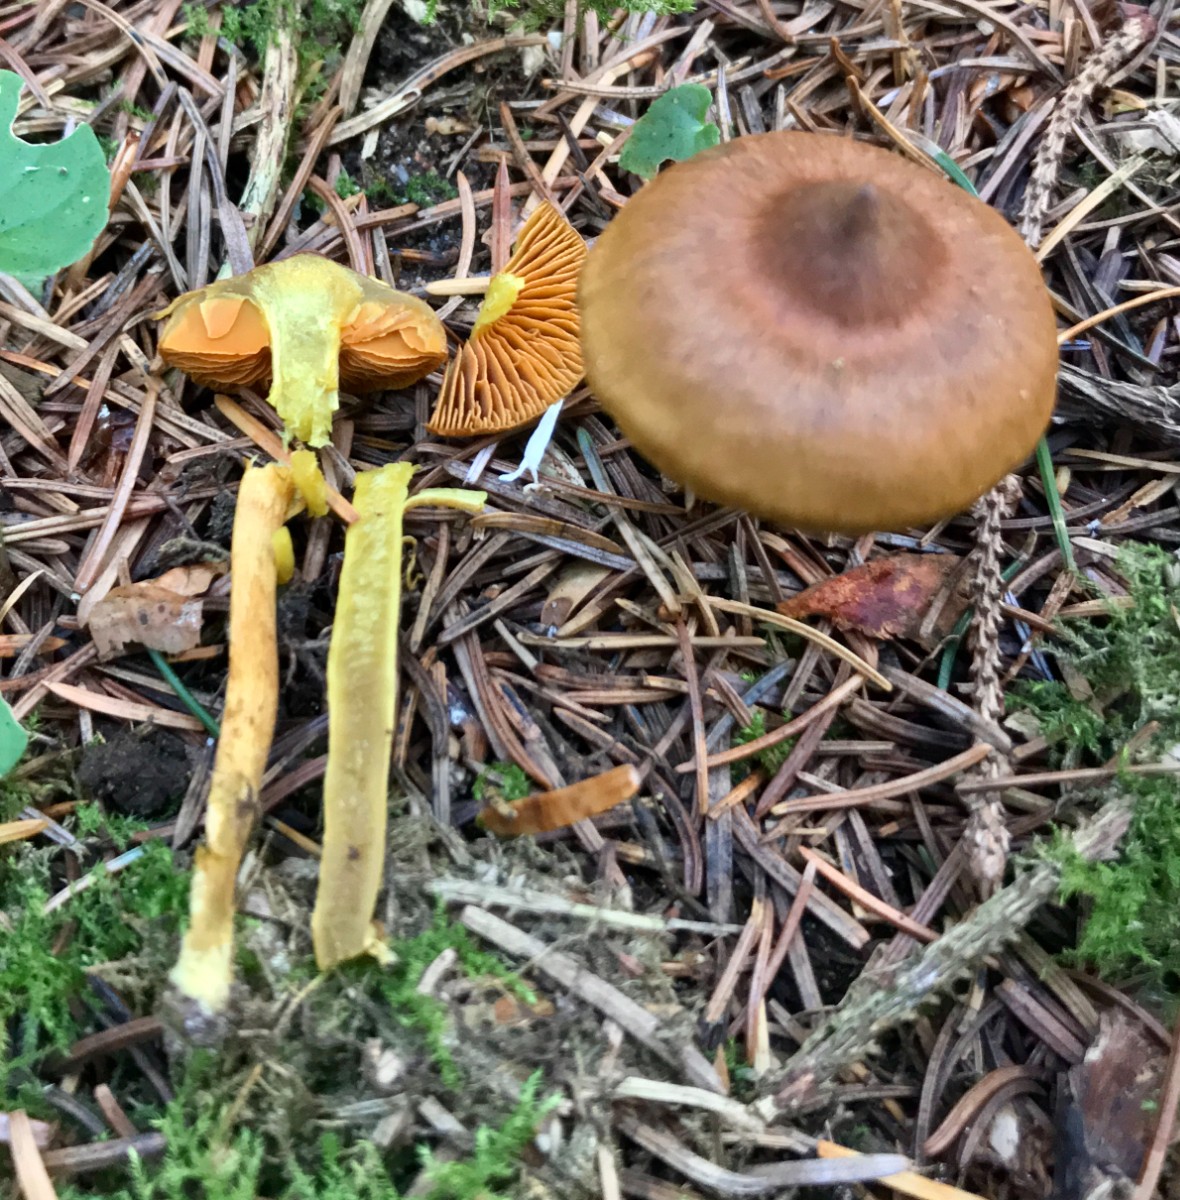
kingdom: Fungi
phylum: Basidiomycota
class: Agaricomycetes
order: Agaricales
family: Cortinariaceae
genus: Cortinarius
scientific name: Cortinarius malicorius
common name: grønkødet slørhat
